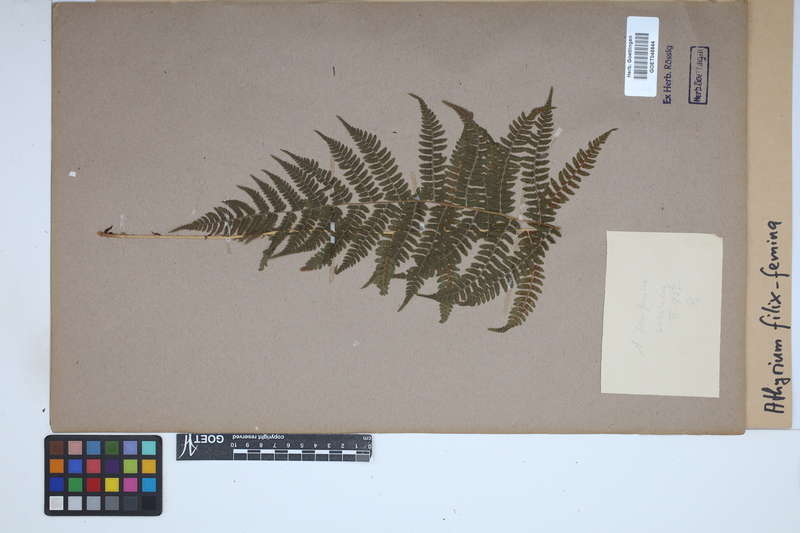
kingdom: Plantae
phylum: Tracheophyta
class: Polypodiopsida
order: Polypodiales
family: Athyriaceae
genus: Athyrium
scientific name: Athyrium filix-femina
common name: Lady fern
